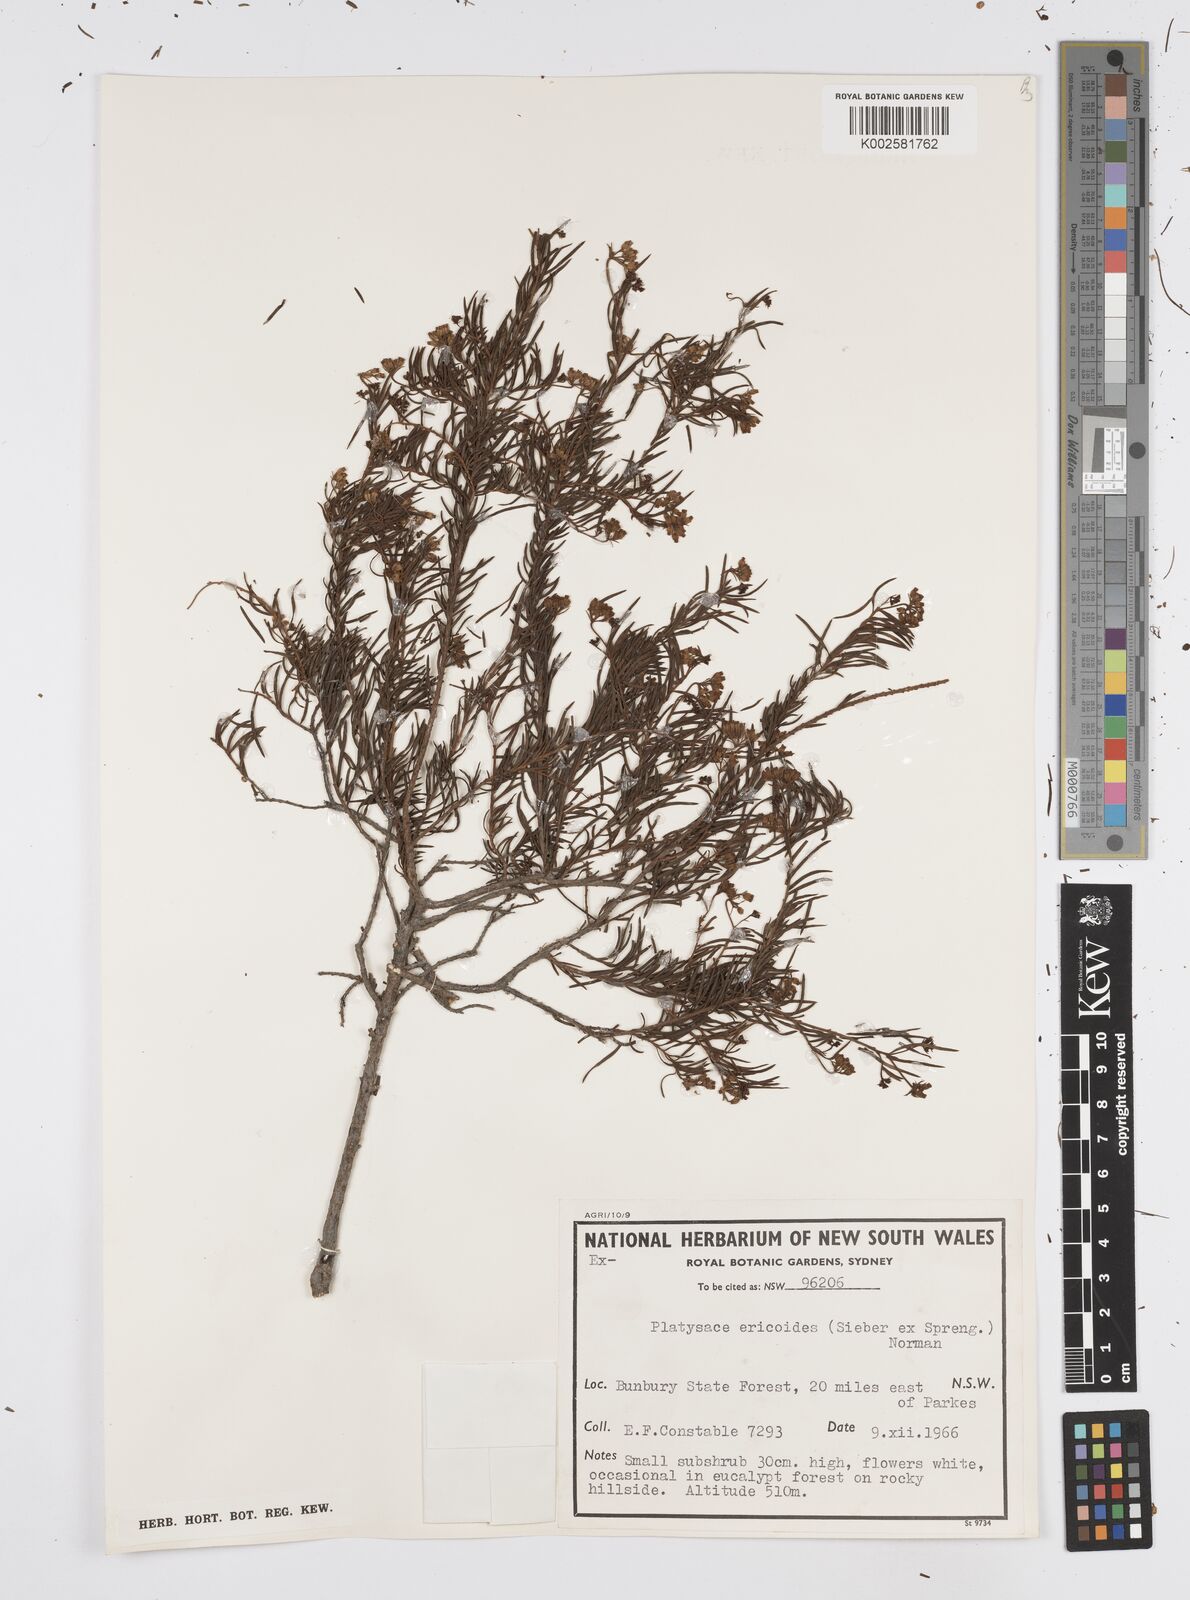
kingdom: Plantae
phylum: Tracheophyta
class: Magnoliopsida
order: Apiales
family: Apiaceae
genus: Platysace
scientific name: Platysace ericoides
